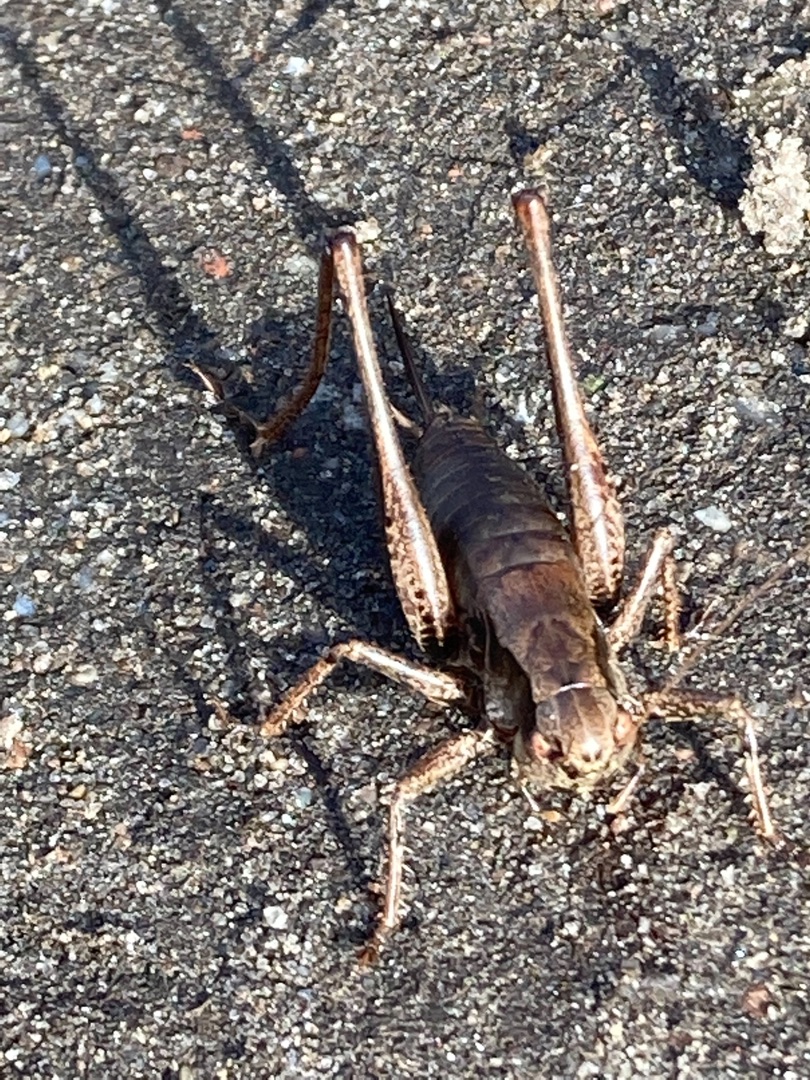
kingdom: Animalia
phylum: Arthropoda
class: Insecta
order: Orthoptera
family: Tettigoniidae
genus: Pholidoptera
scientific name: Pholidoptera griseoaptera
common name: Buskgræshoppe
